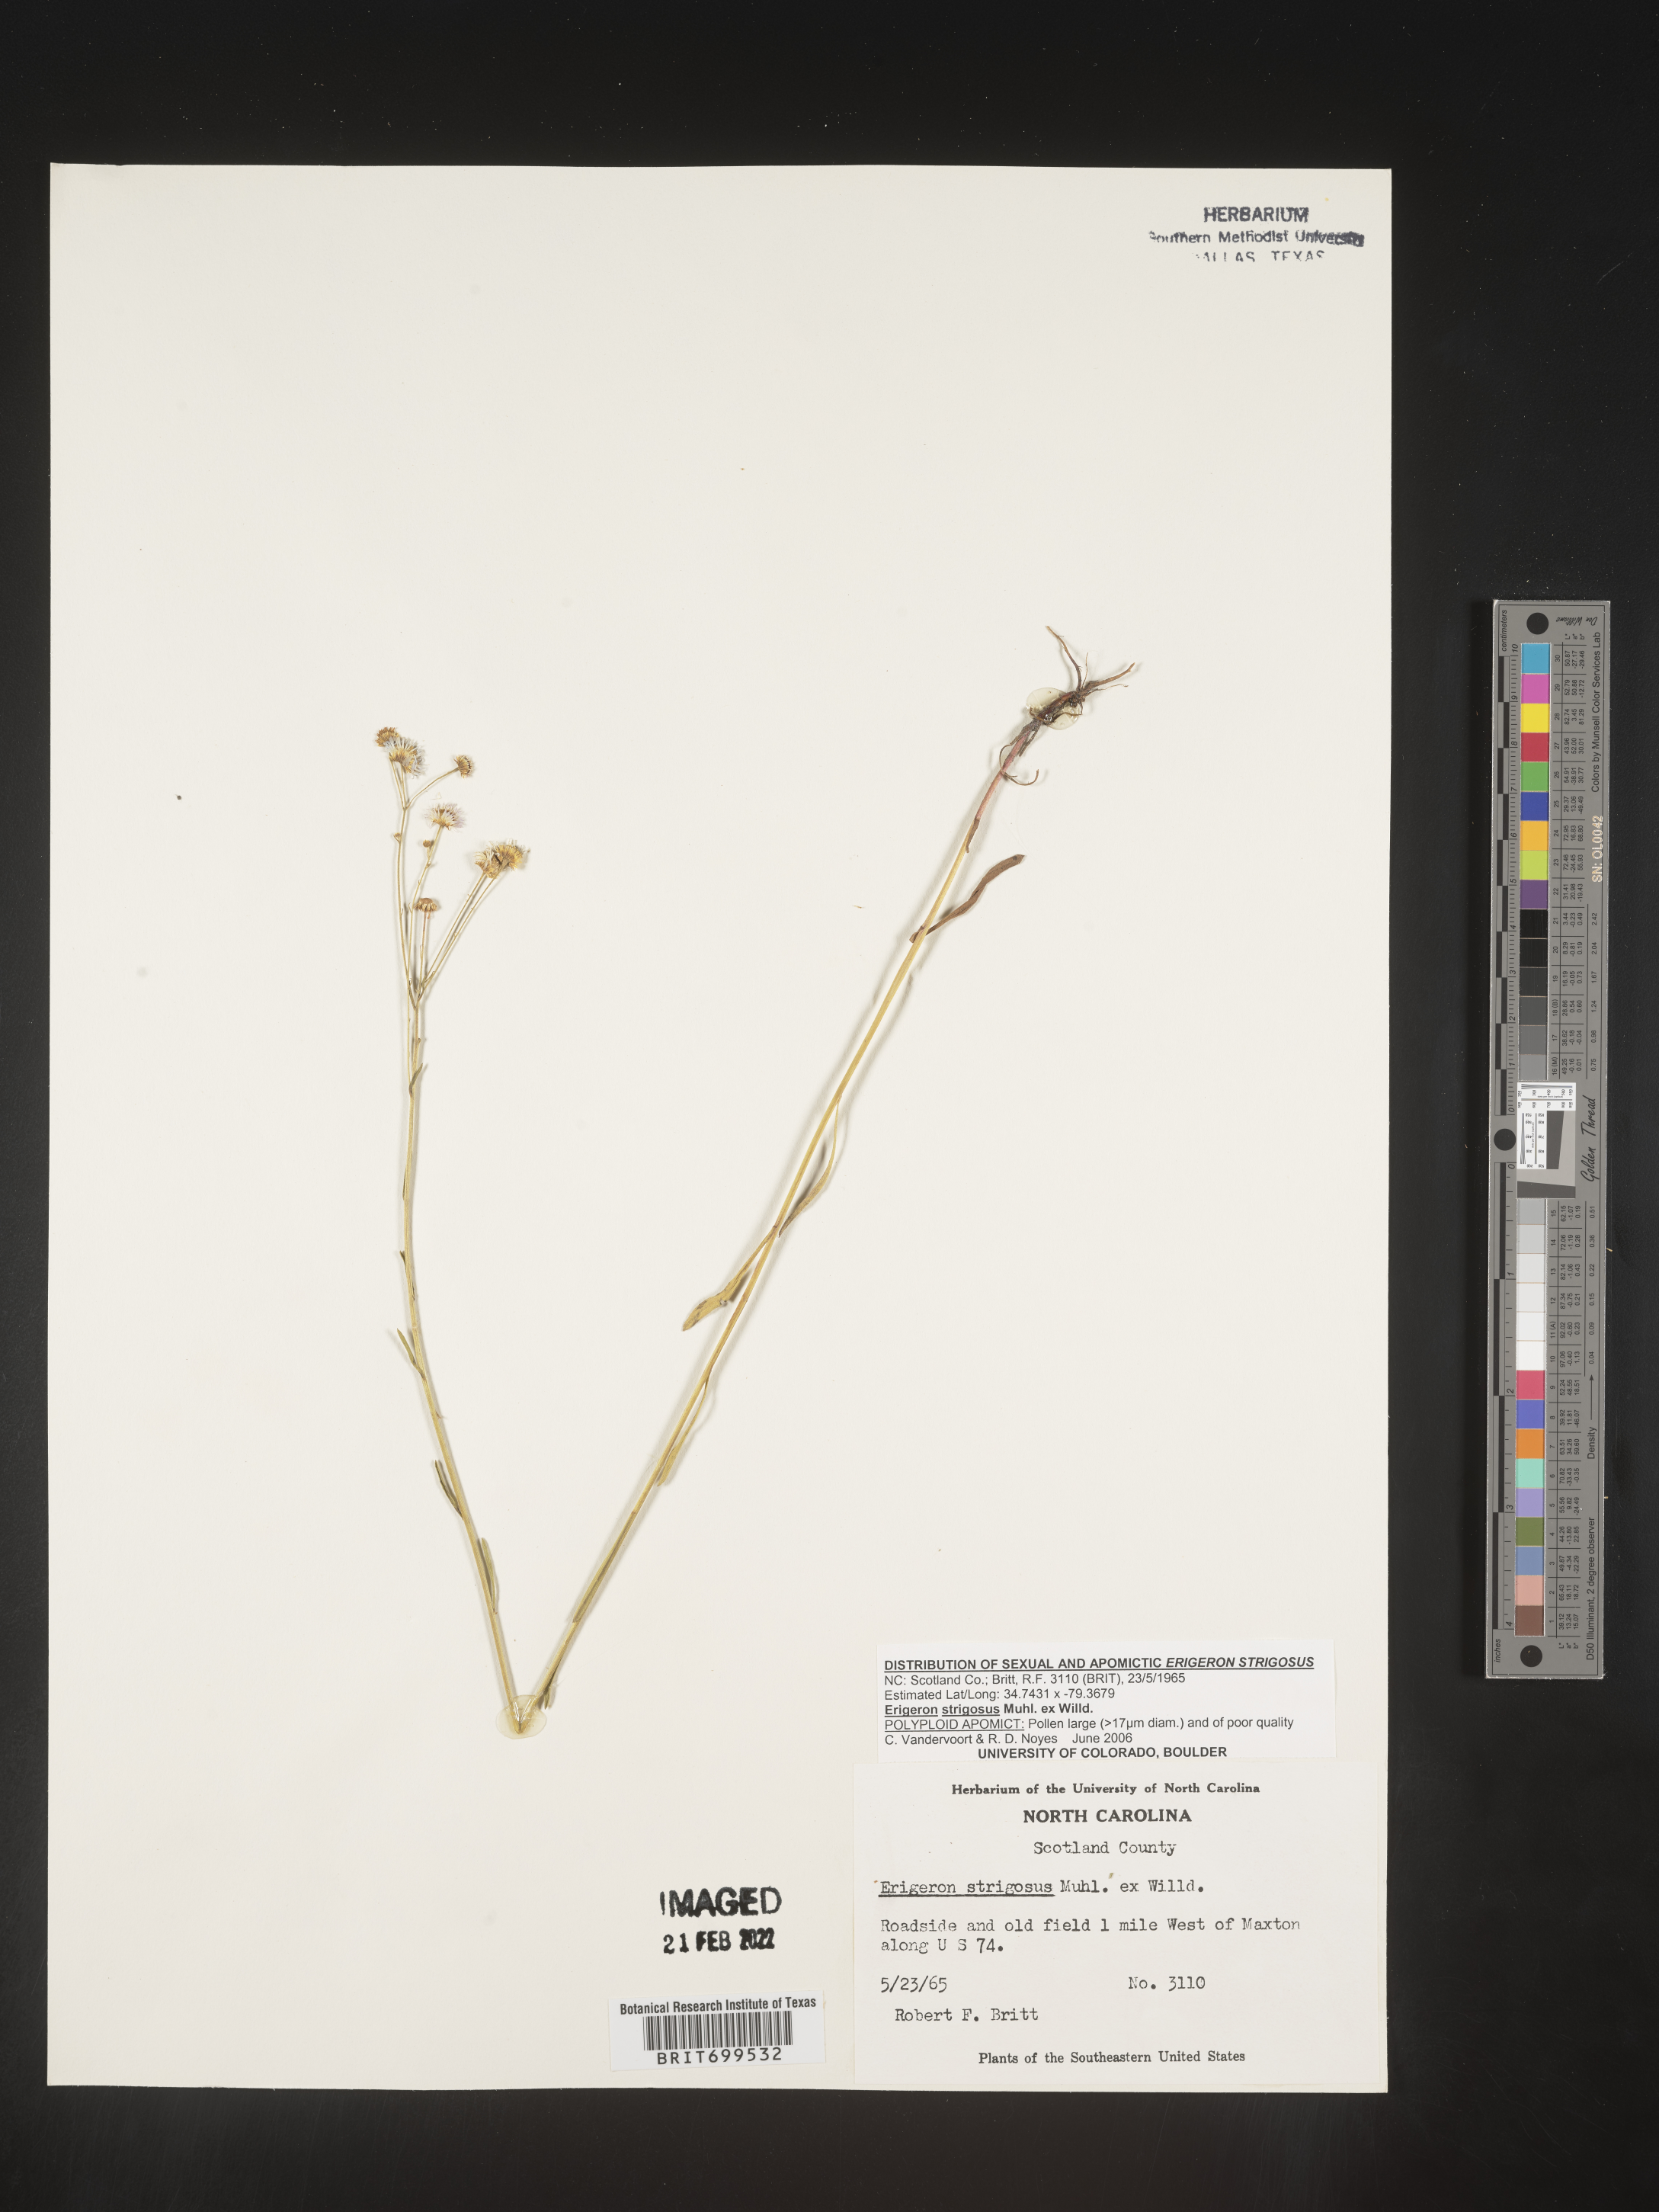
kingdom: Plantae
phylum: Tracheophyta
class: Magnoliopsida
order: Asterales
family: Asteraceae
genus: Erigeron
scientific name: Erigeron strigosus
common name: Common eastern fleabane
